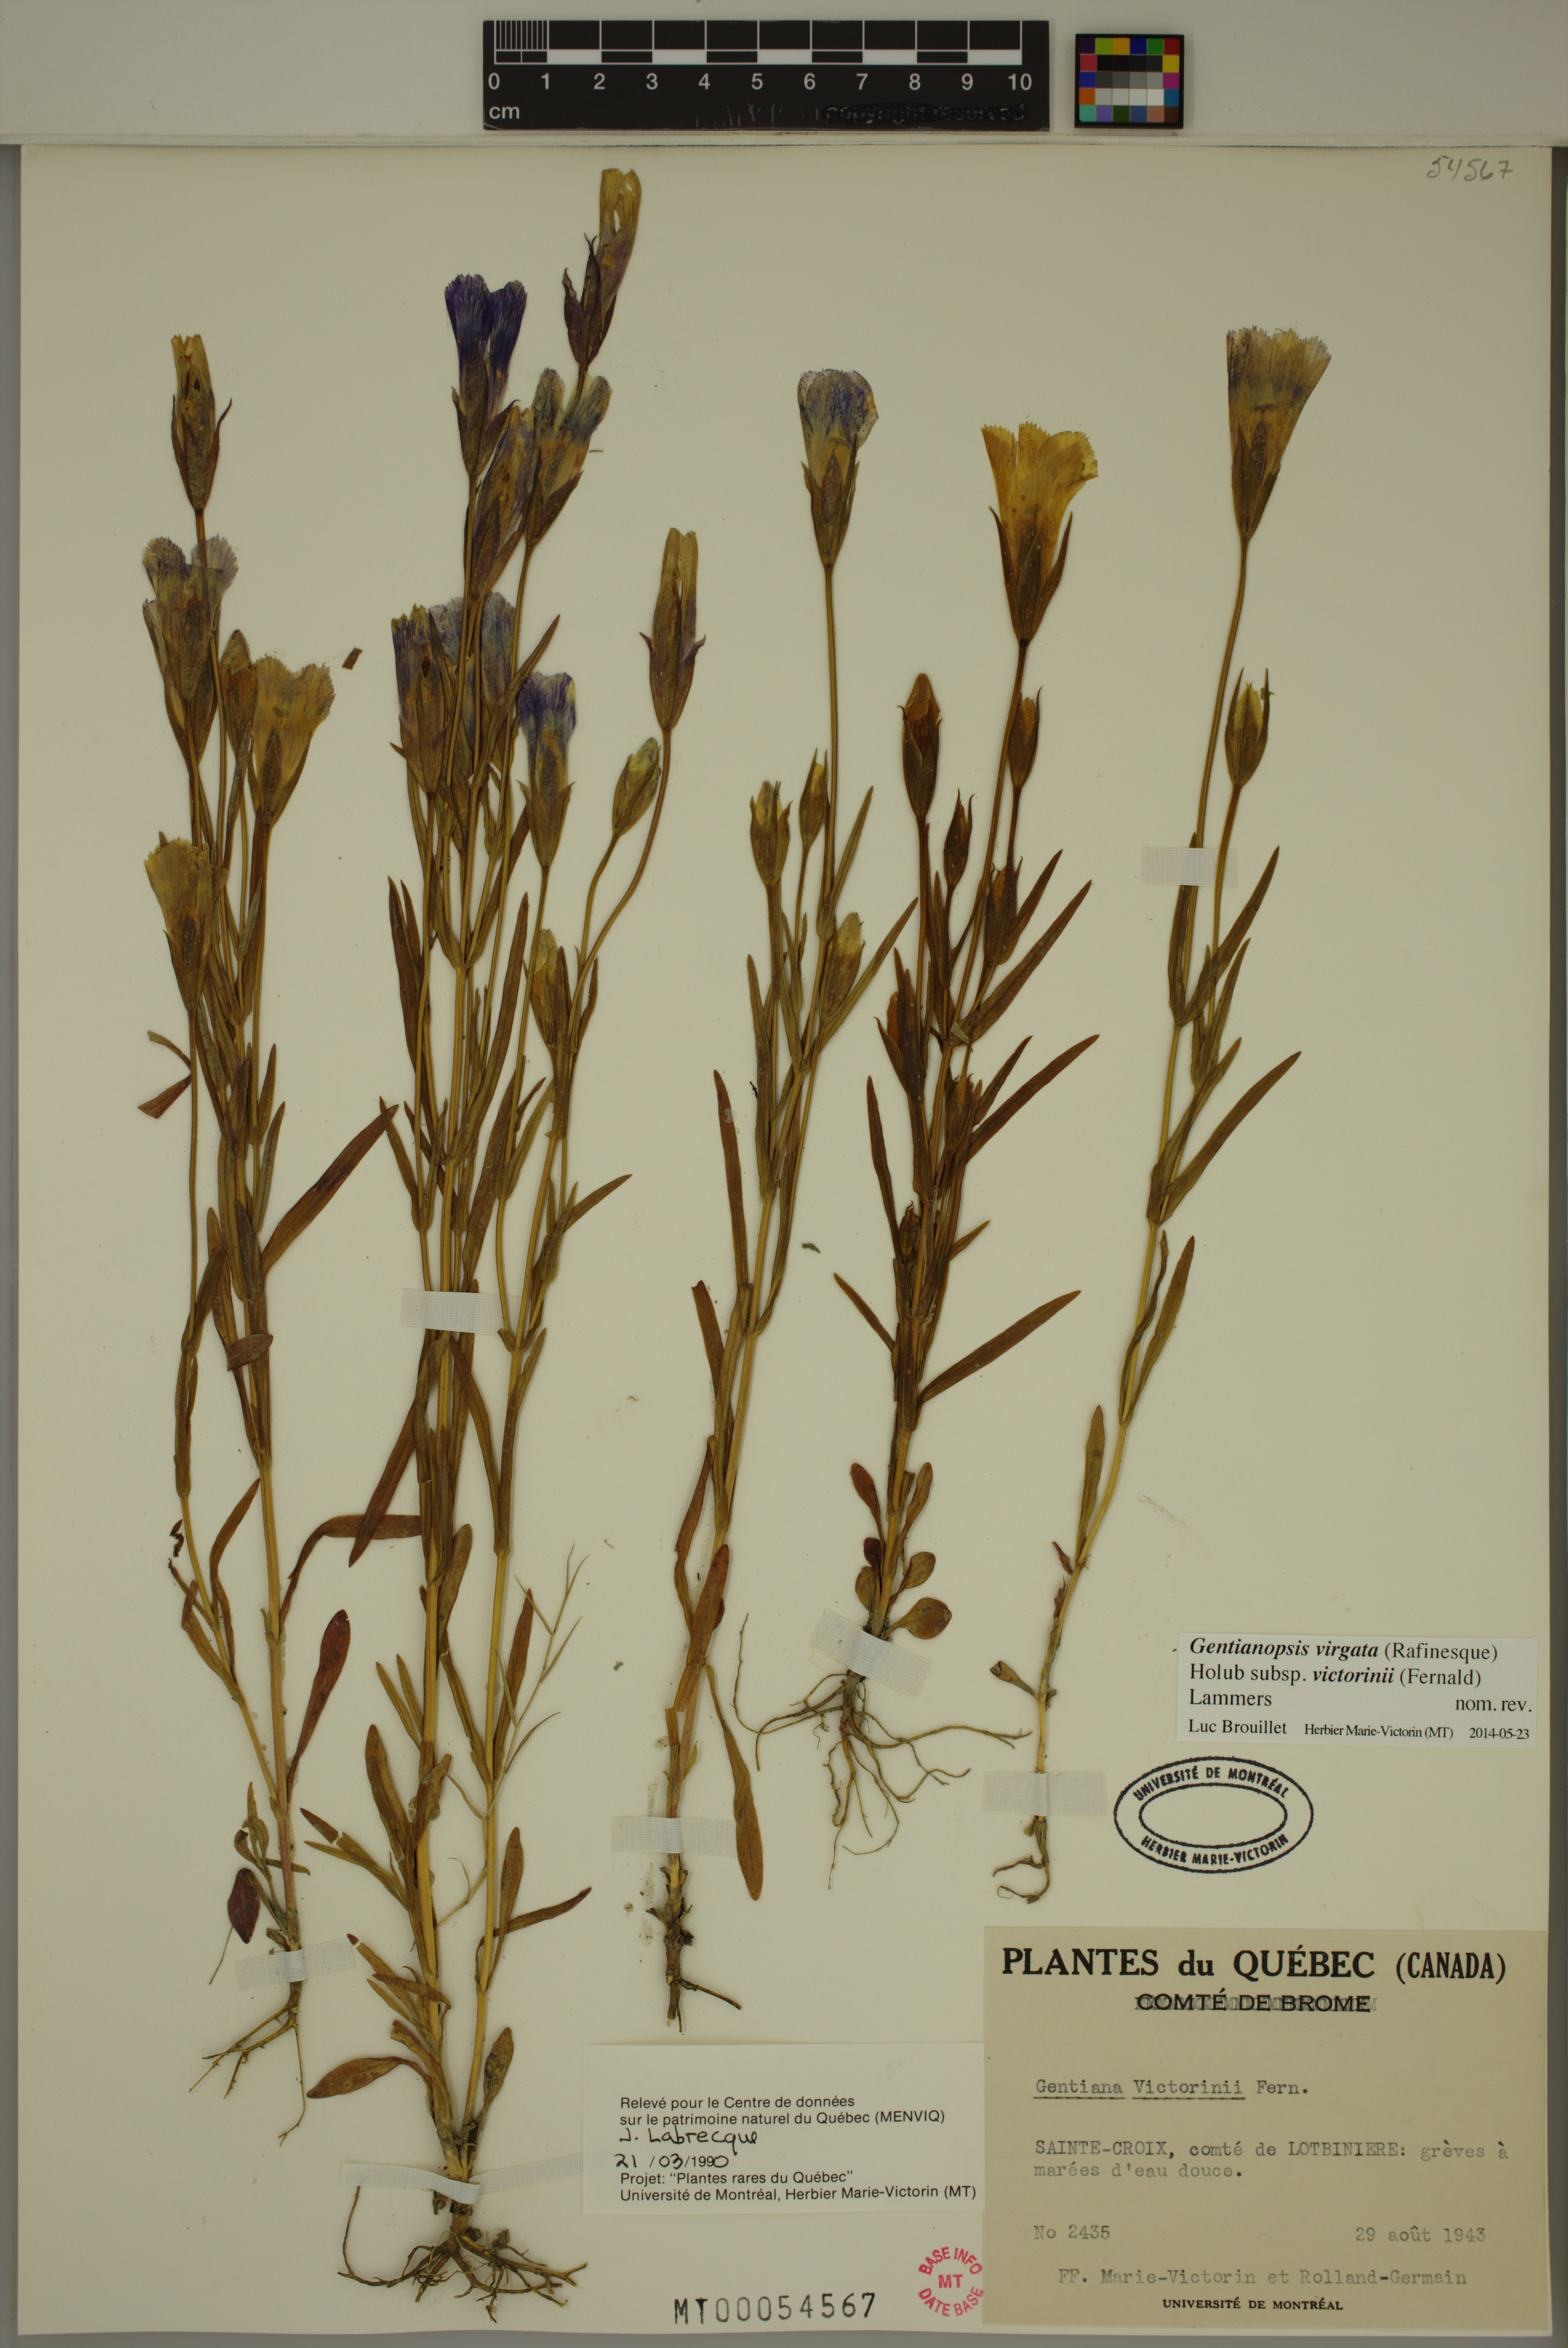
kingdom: Plantae
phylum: Tracheophyta
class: Magnoliopsida
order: Gentianales
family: Gentianaceae
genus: Gentianopsis
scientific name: Gentianopsis victorinii
